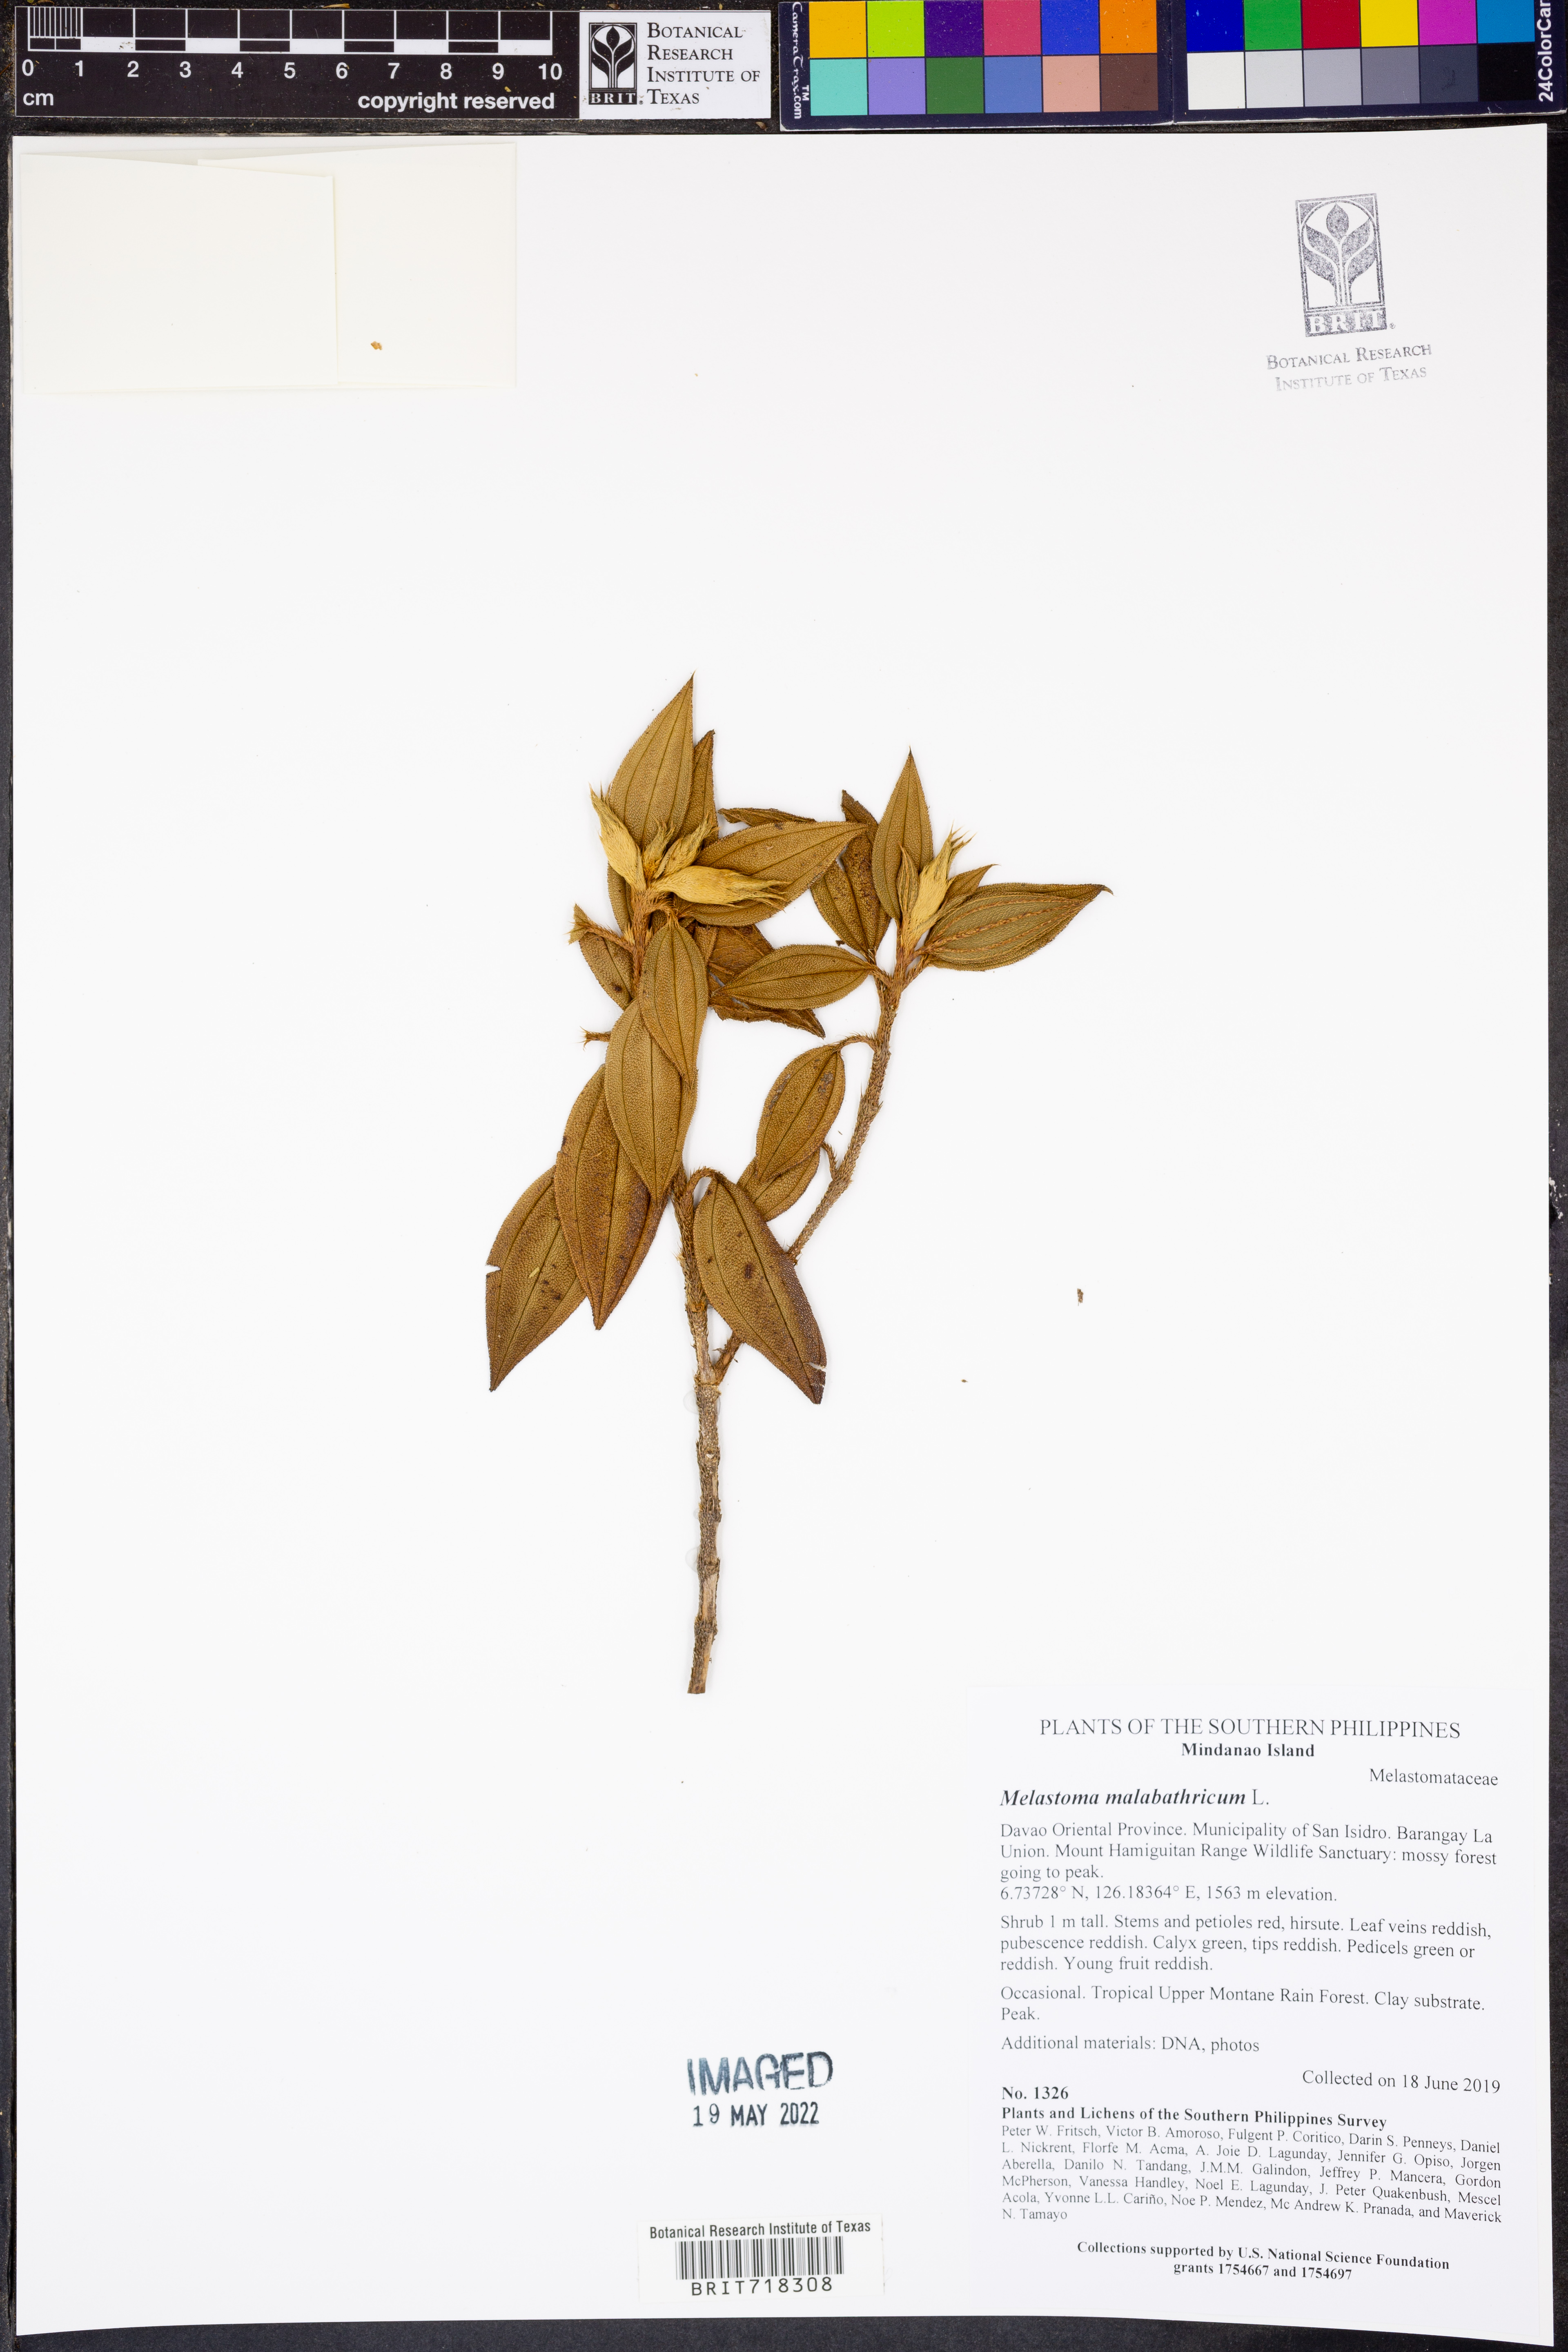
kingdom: Plantae
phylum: Tracheophyta
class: Magnoliopsida
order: Myrtales
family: Melastomataceae
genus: Melastoma
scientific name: Melastoma malabathricum
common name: Indian-rhododendron
